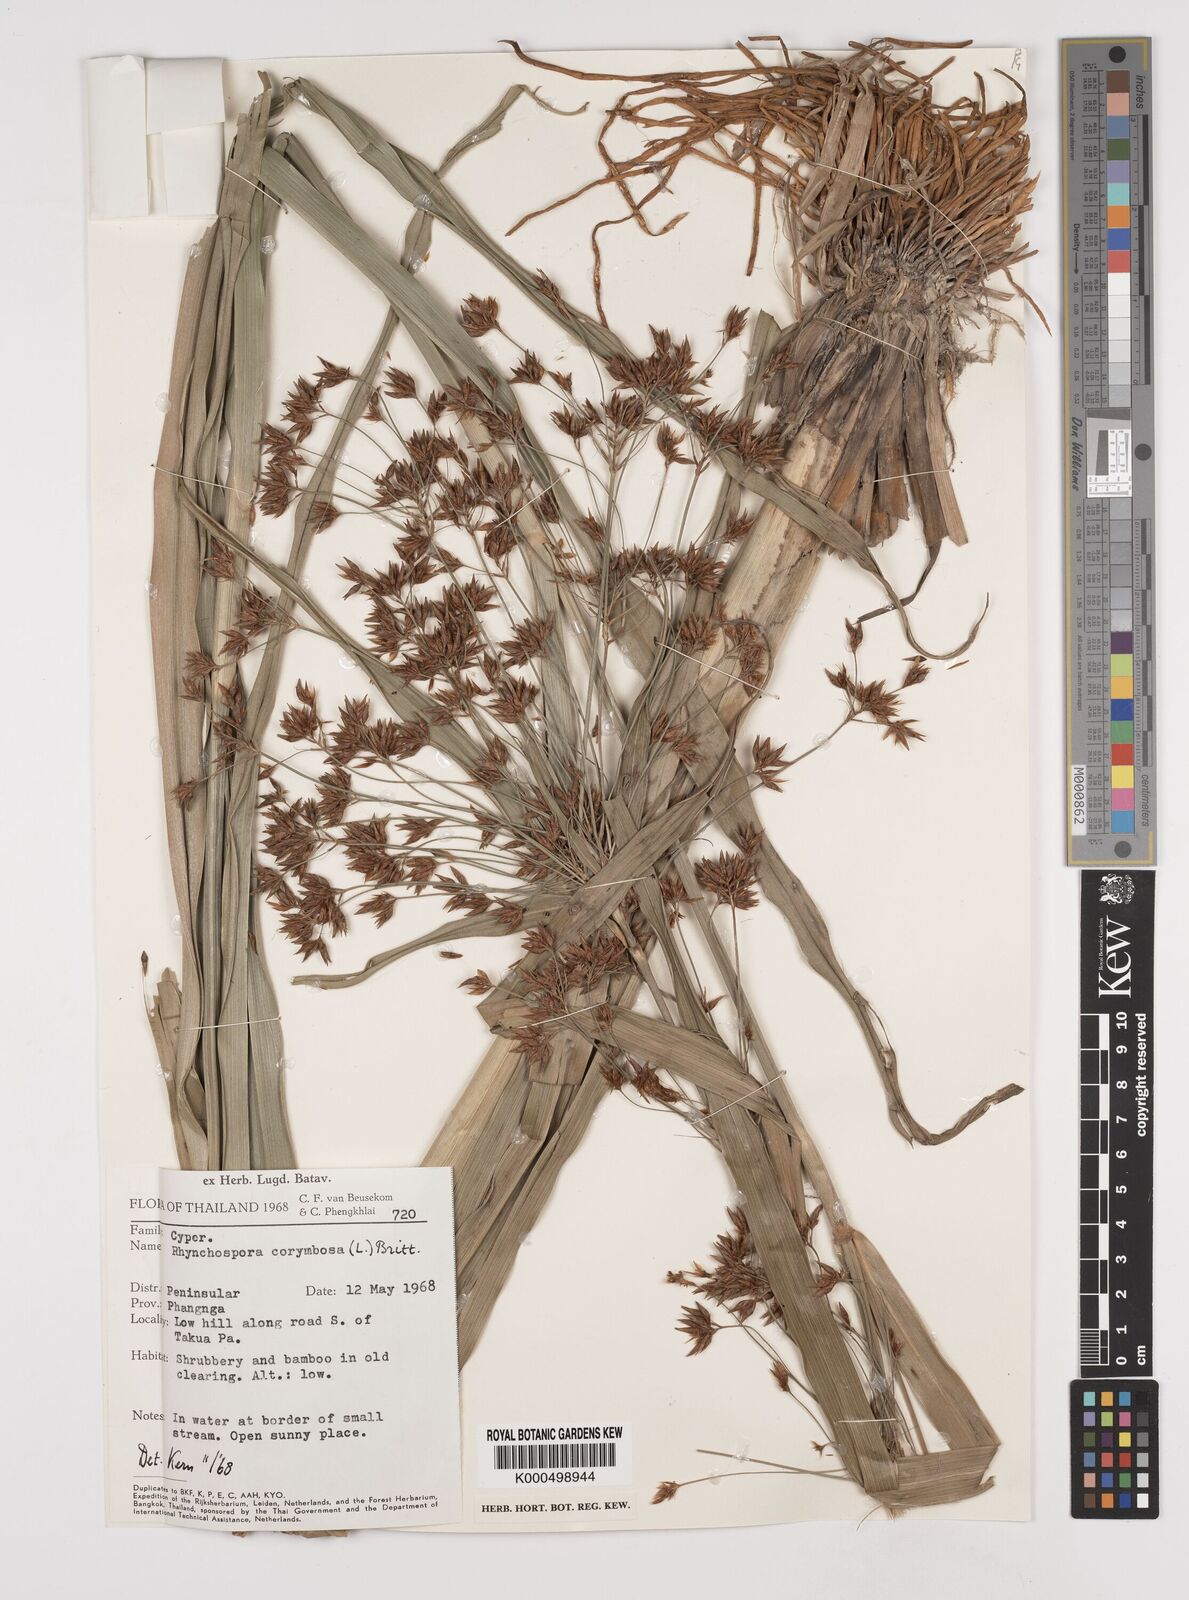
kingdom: Plantae
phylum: Tracheophyta
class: Liliopsida
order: Poales
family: Cyperaceae
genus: Rhynchospora
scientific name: Rhynchospora corymbosa
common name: Golden beak sedge
